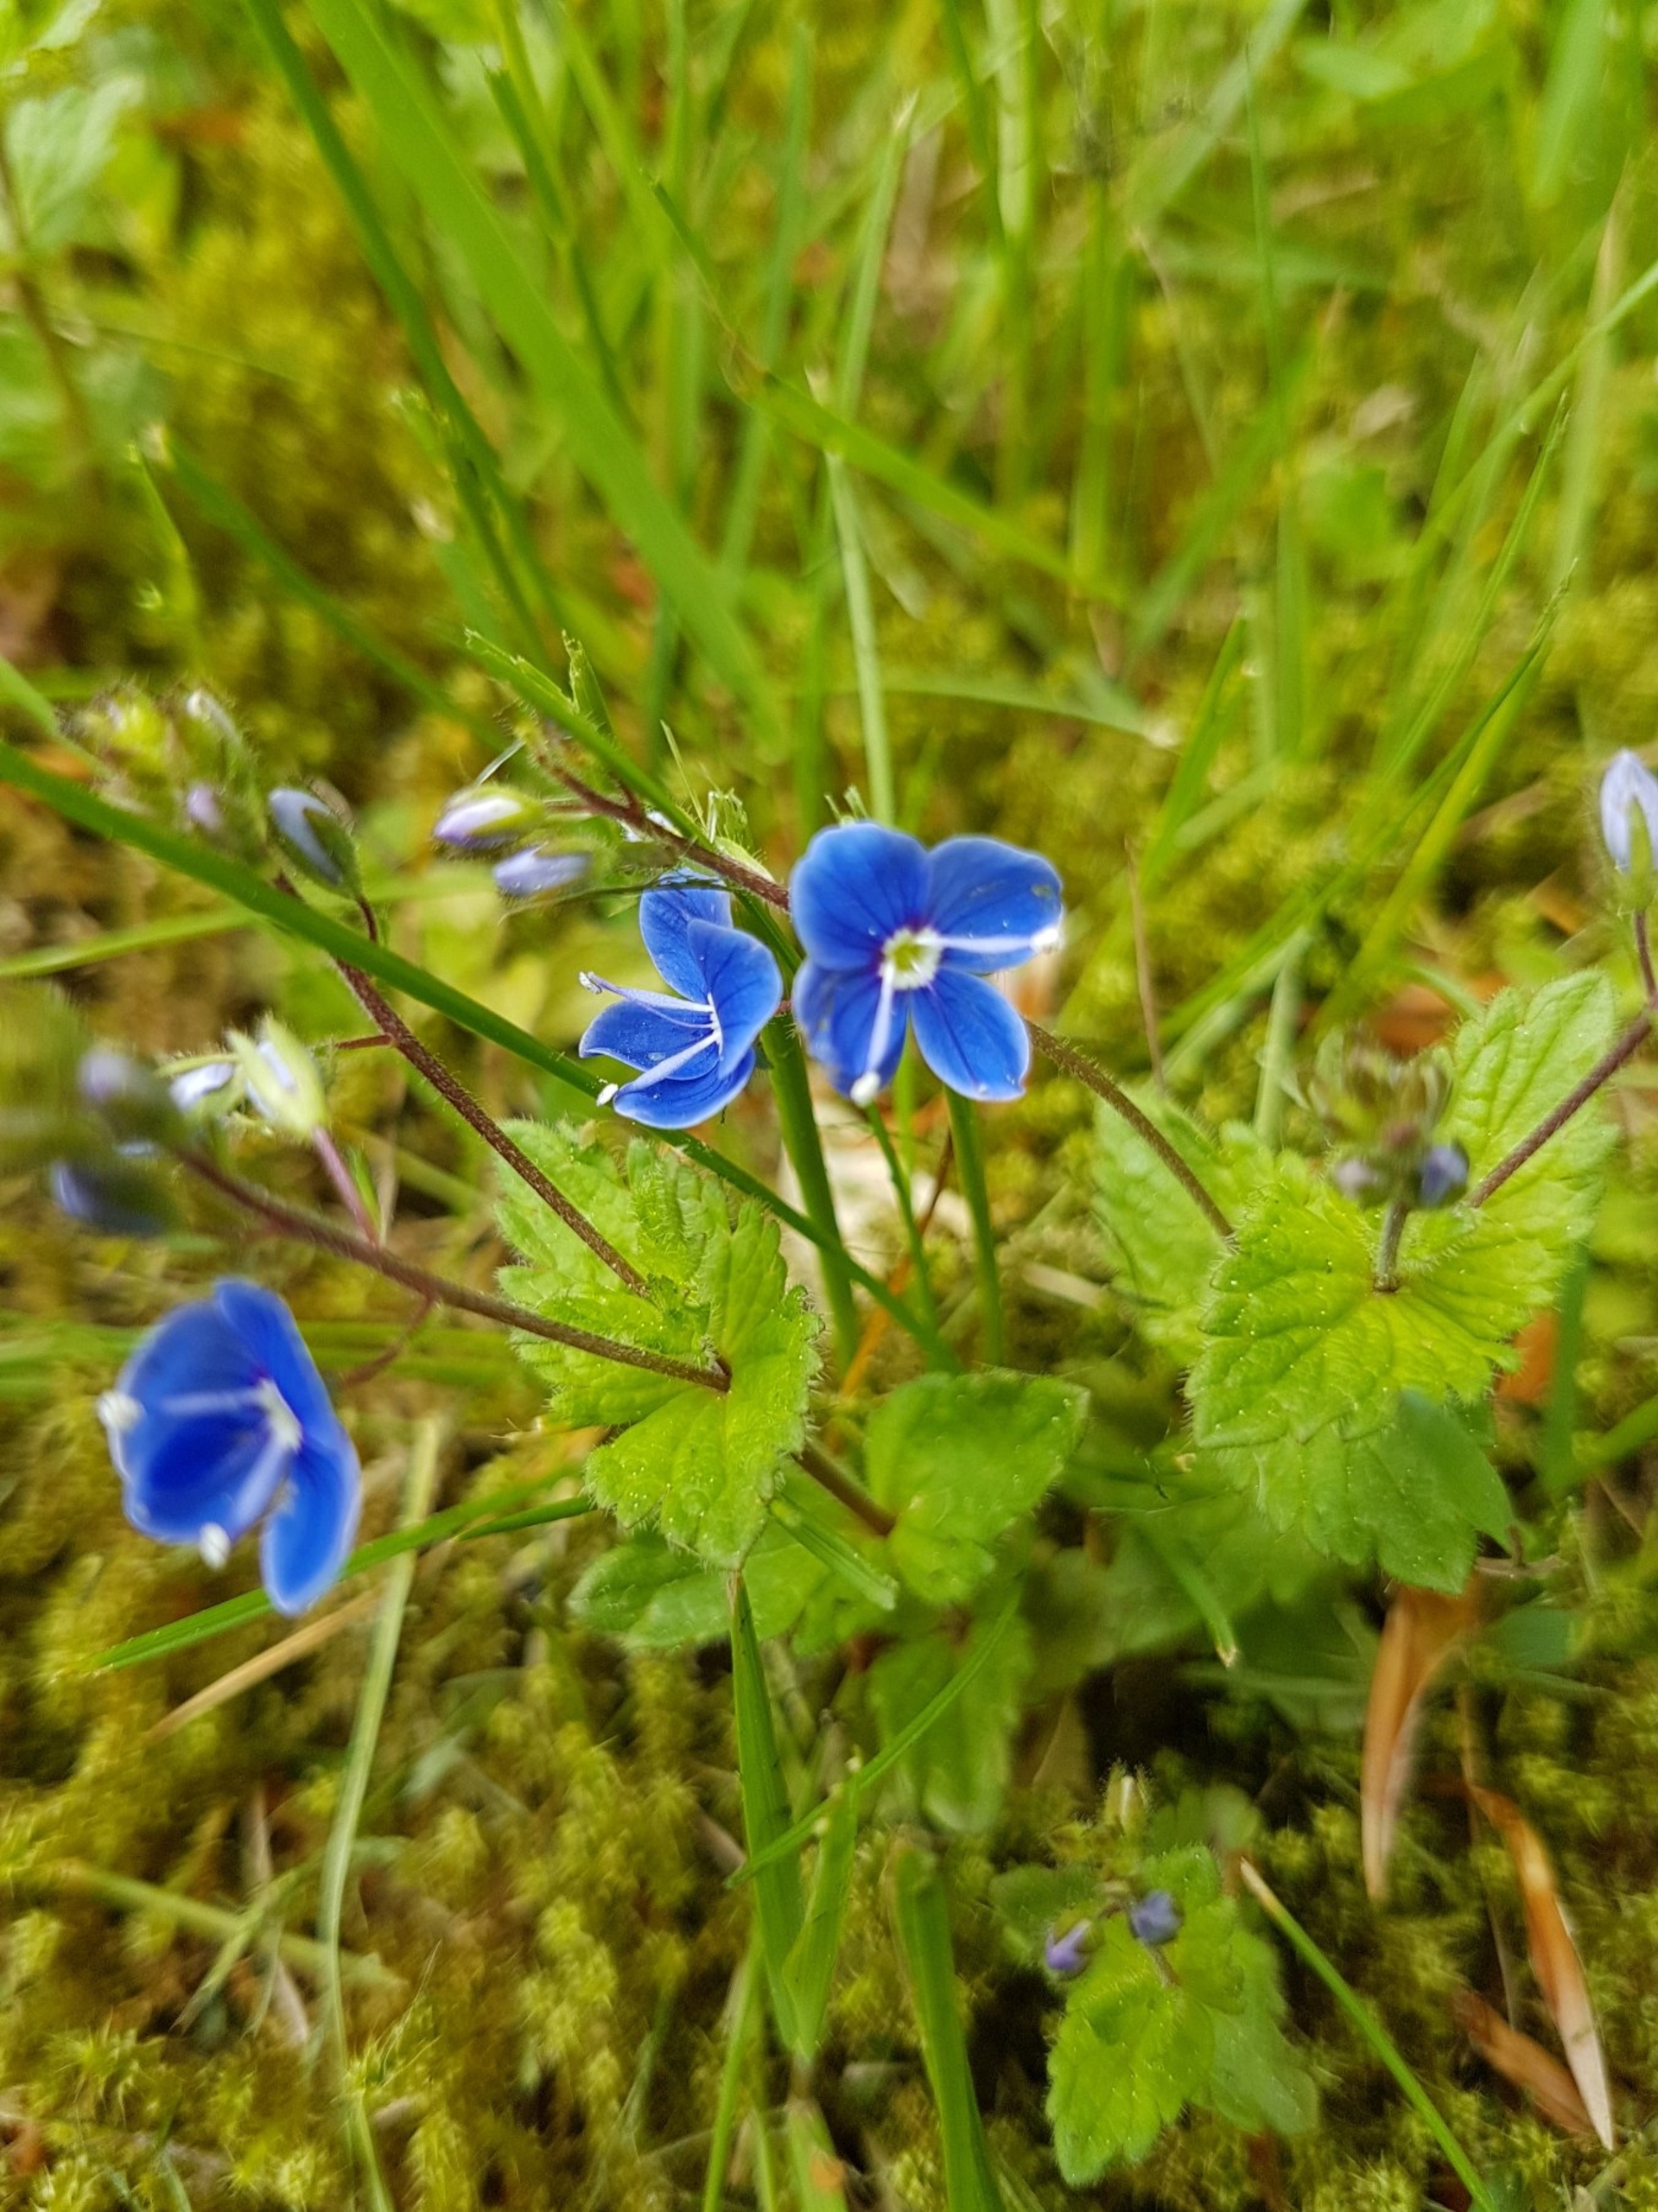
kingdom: Plantae
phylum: Tracheophyta
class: Magnoliopsida
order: Lamiales
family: Plantaginaceae
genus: Veronica
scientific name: Veronica chamaedrys
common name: Tveskægget ærenpris
